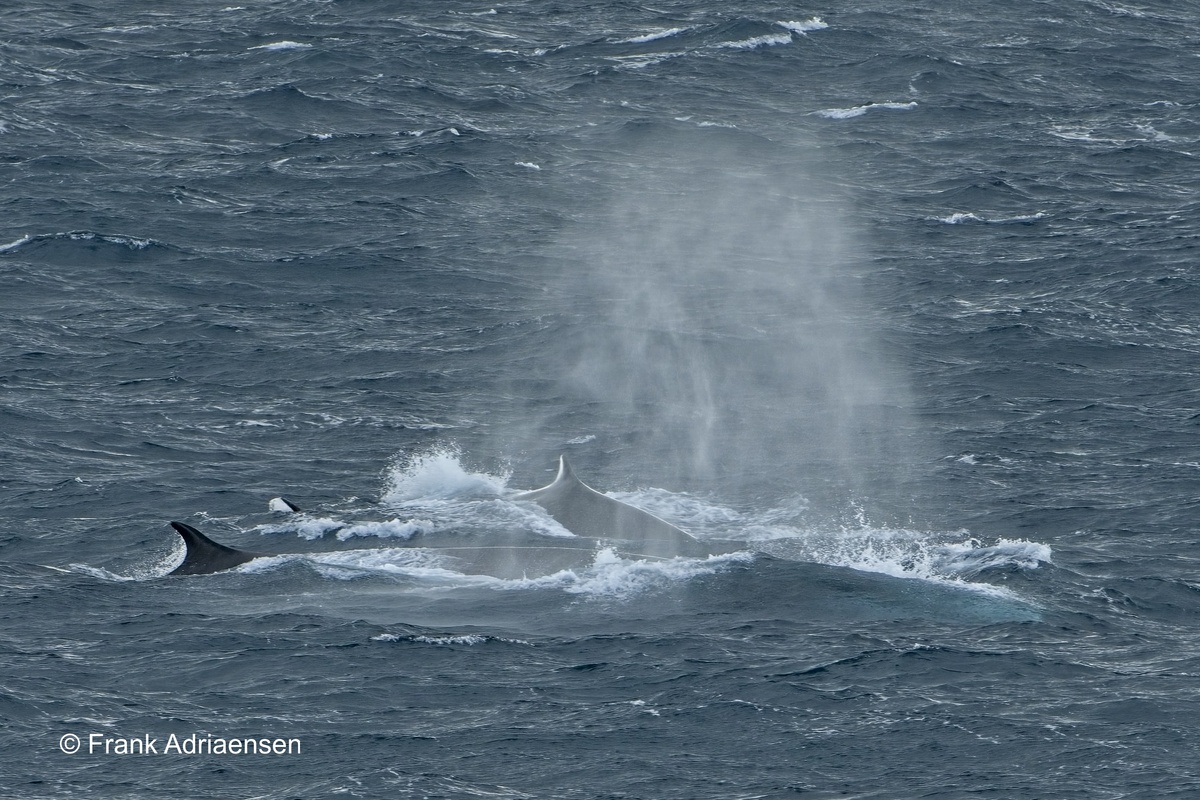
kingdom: Animalia
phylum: Chordata
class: Mammalia
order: Cetacea
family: Balaenopteridae
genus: Balaenoptera
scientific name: Balaenoptera borealis
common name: Sei Whale
